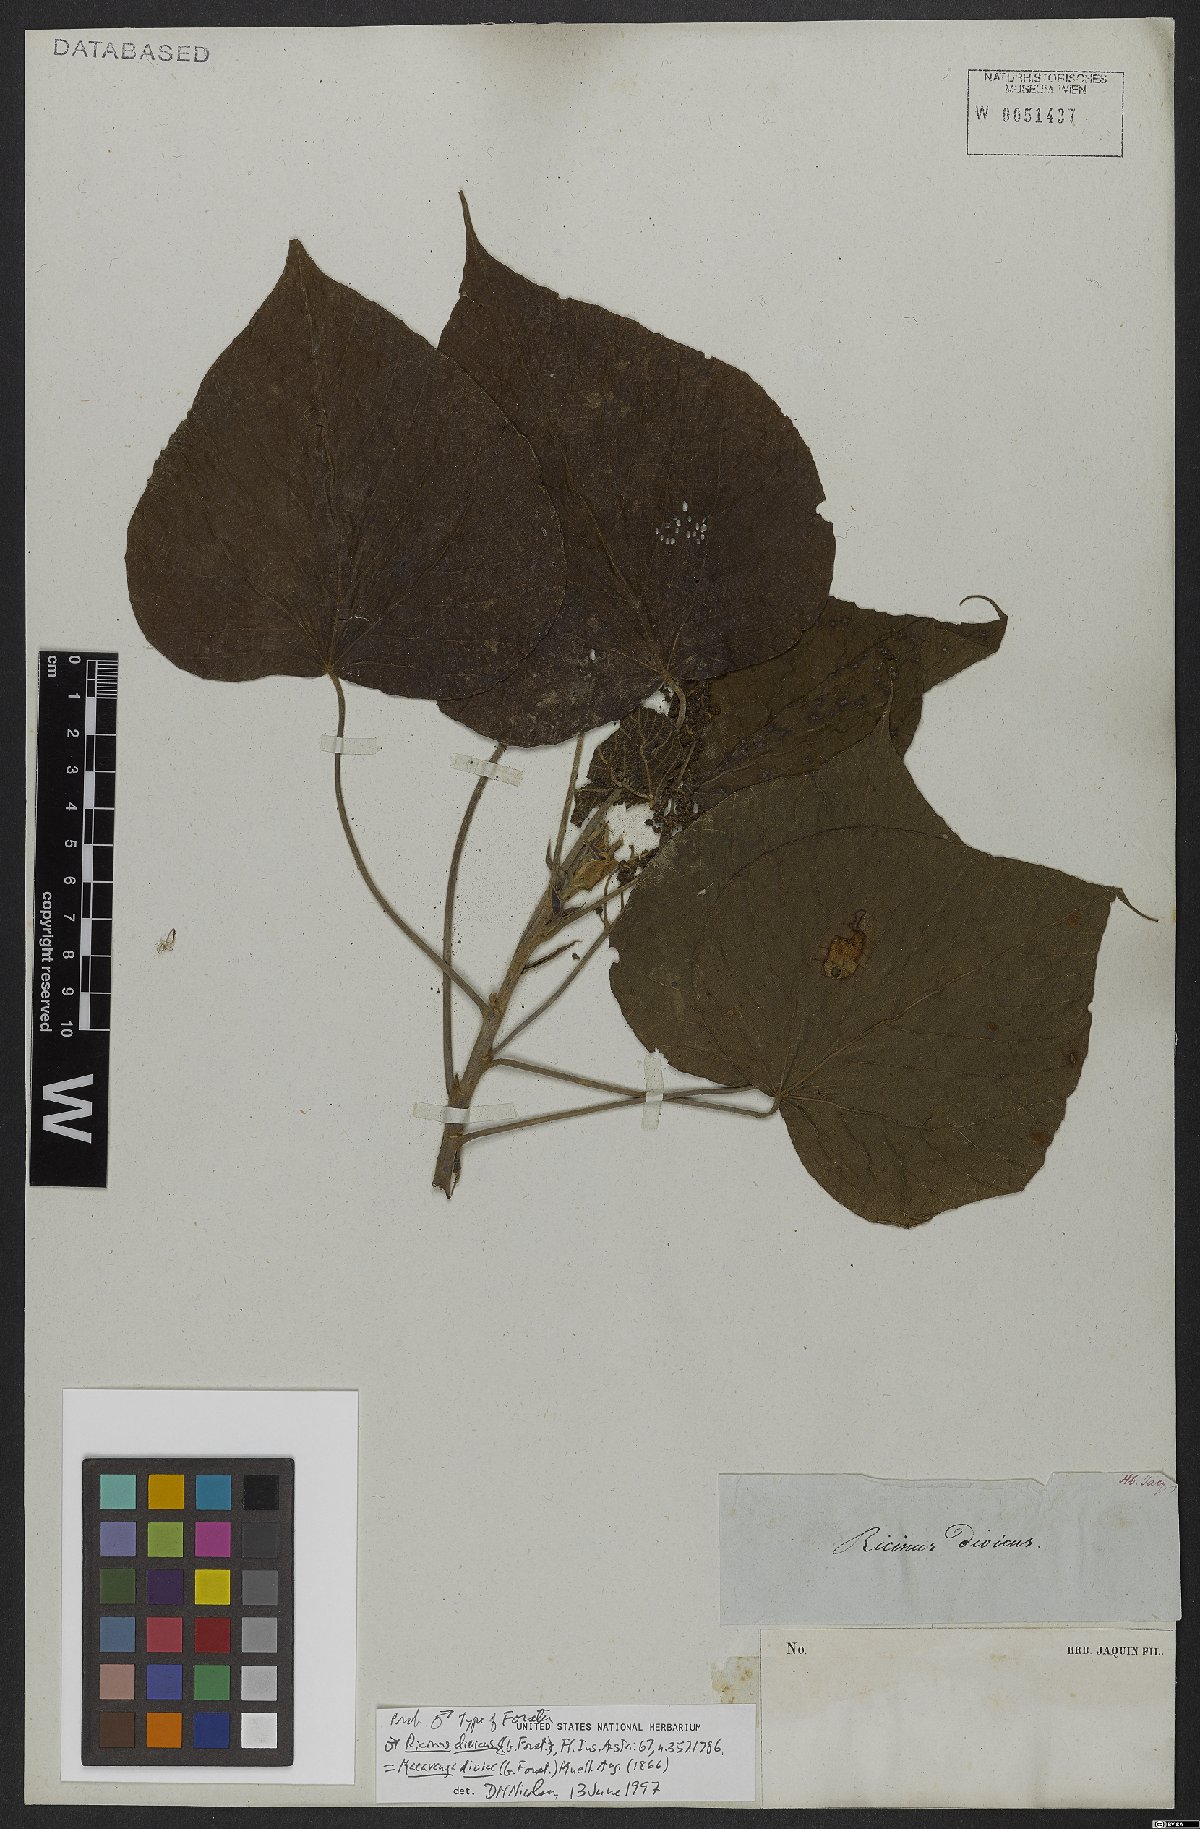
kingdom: Plantae
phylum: Tracheophyta
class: Magnoliopsida
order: Malpighiales
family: Euphorbiaceae
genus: Macaranga
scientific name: Macaranga dioica
